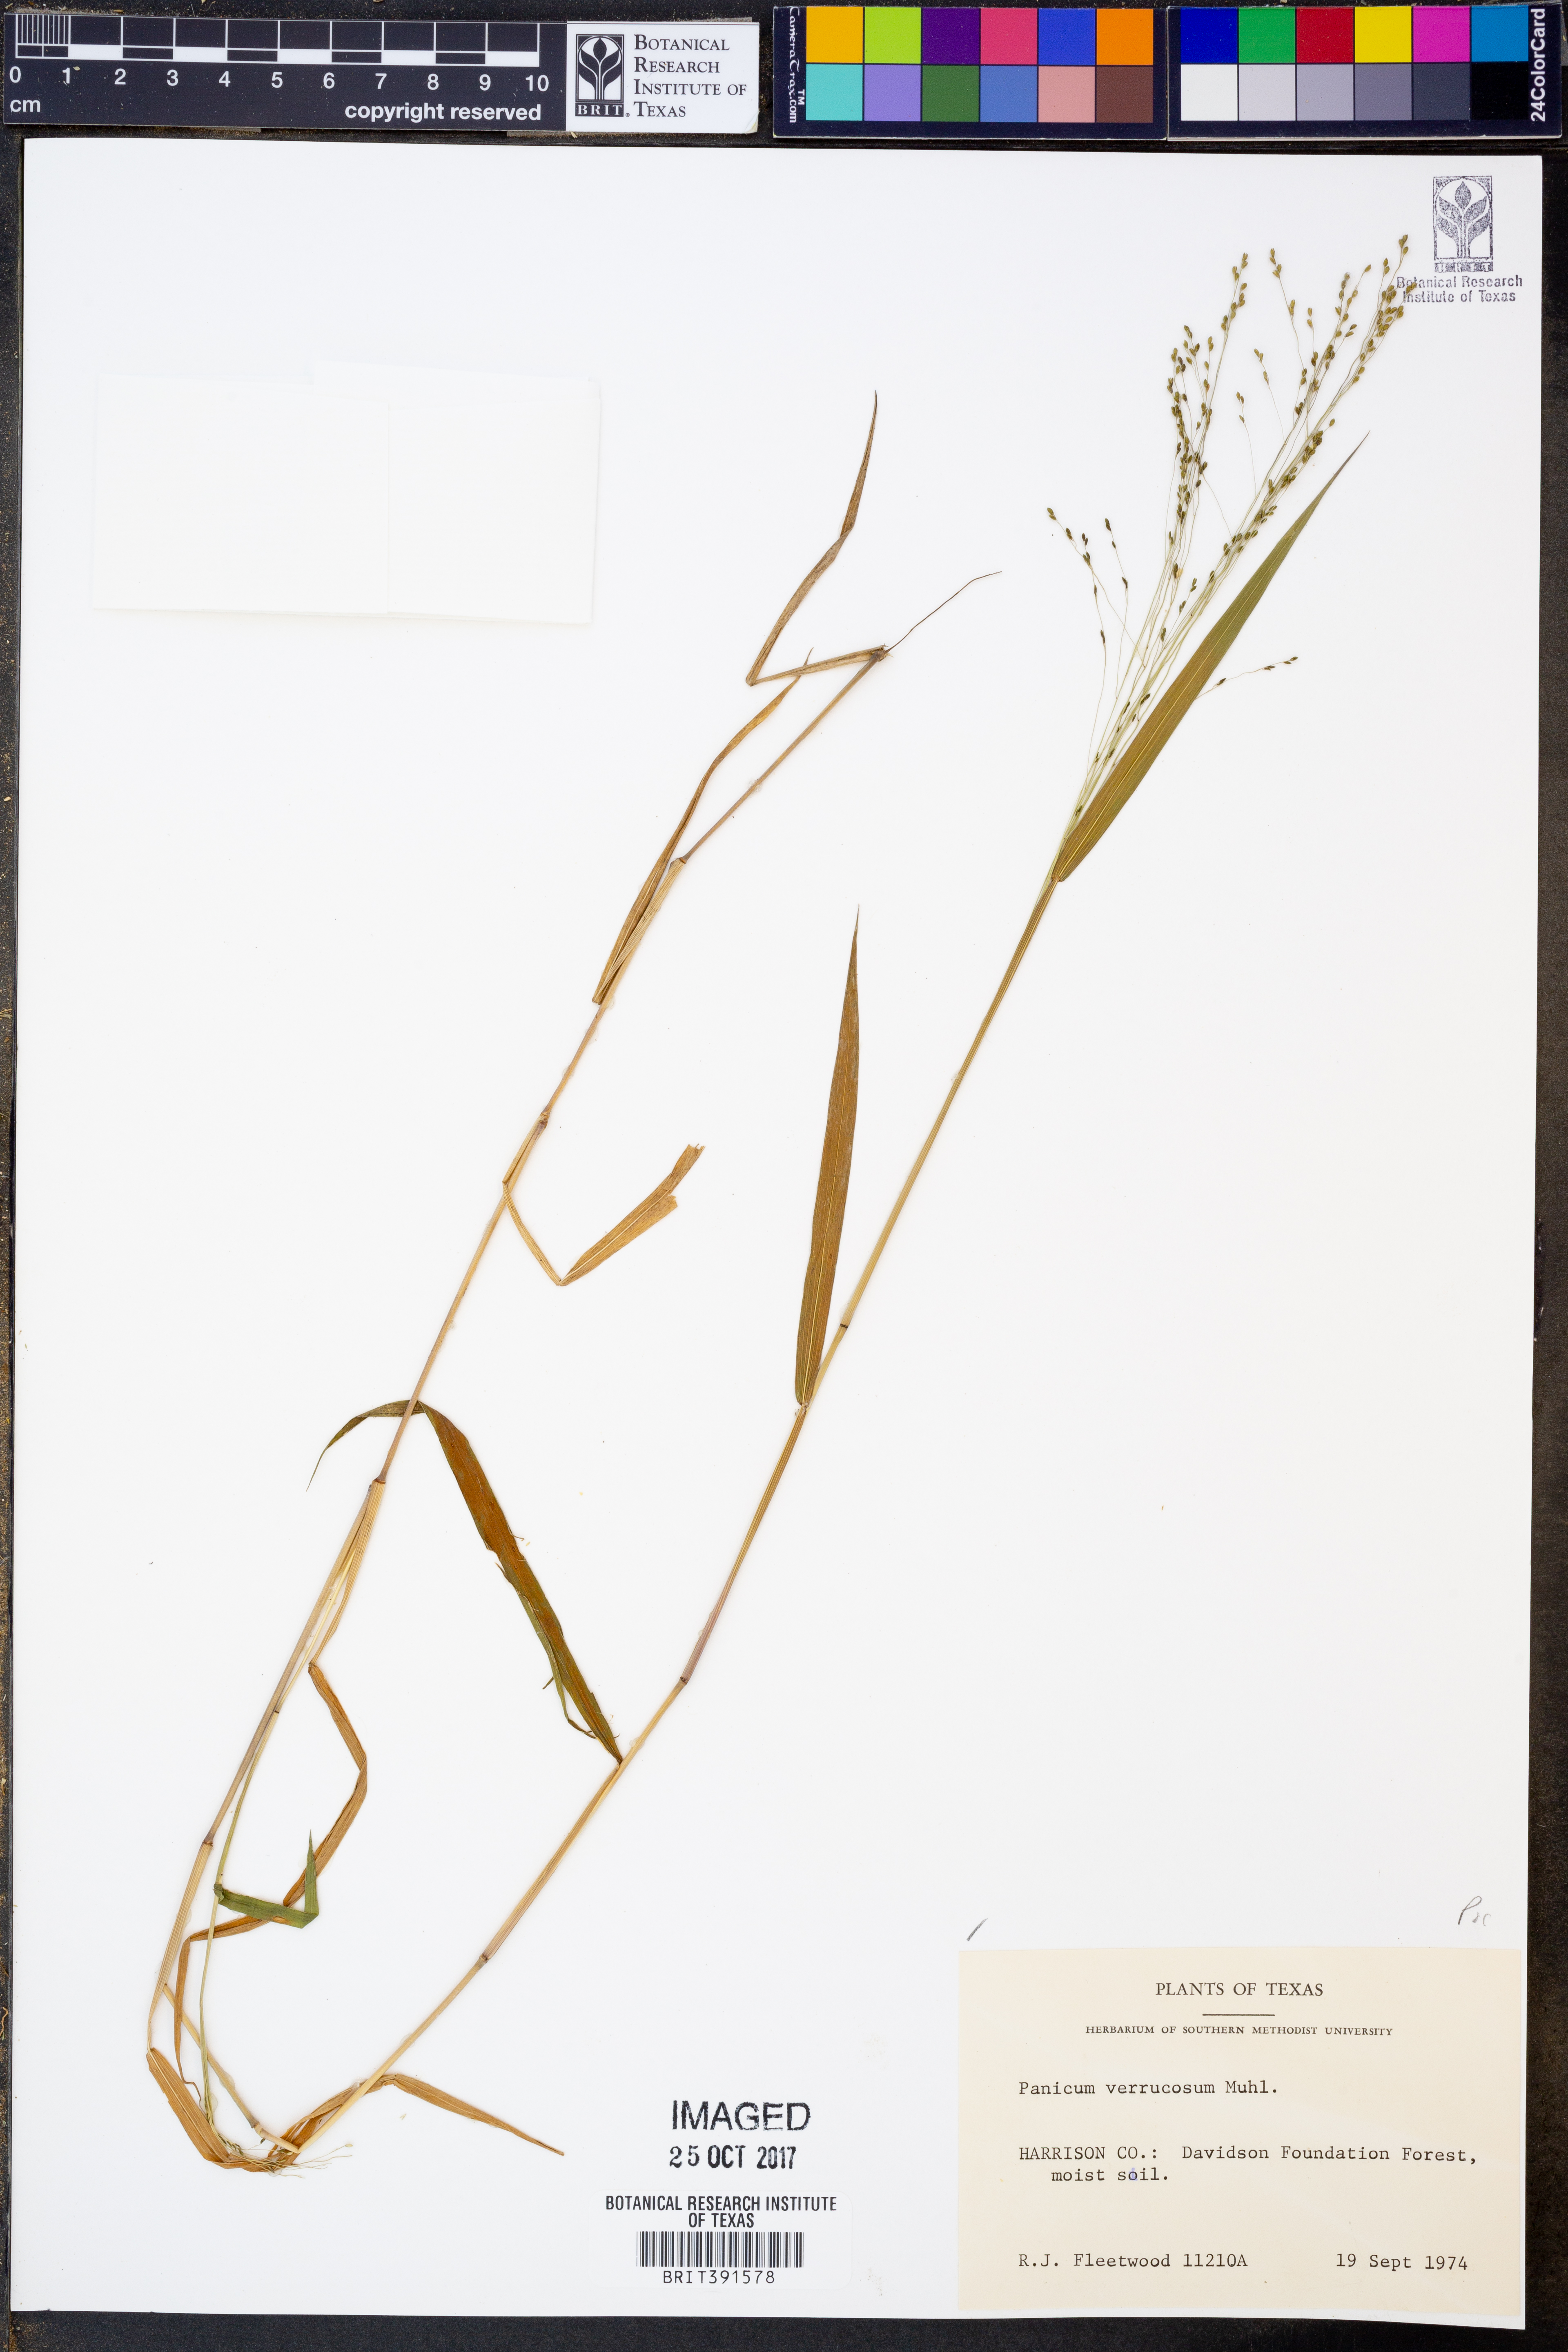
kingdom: Plantae
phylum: Tracheophyta
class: Liliopsida
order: Poales
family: Poaceae
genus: Kellochloa
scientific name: Kellochloa verrucosa
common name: Warty panic grass
